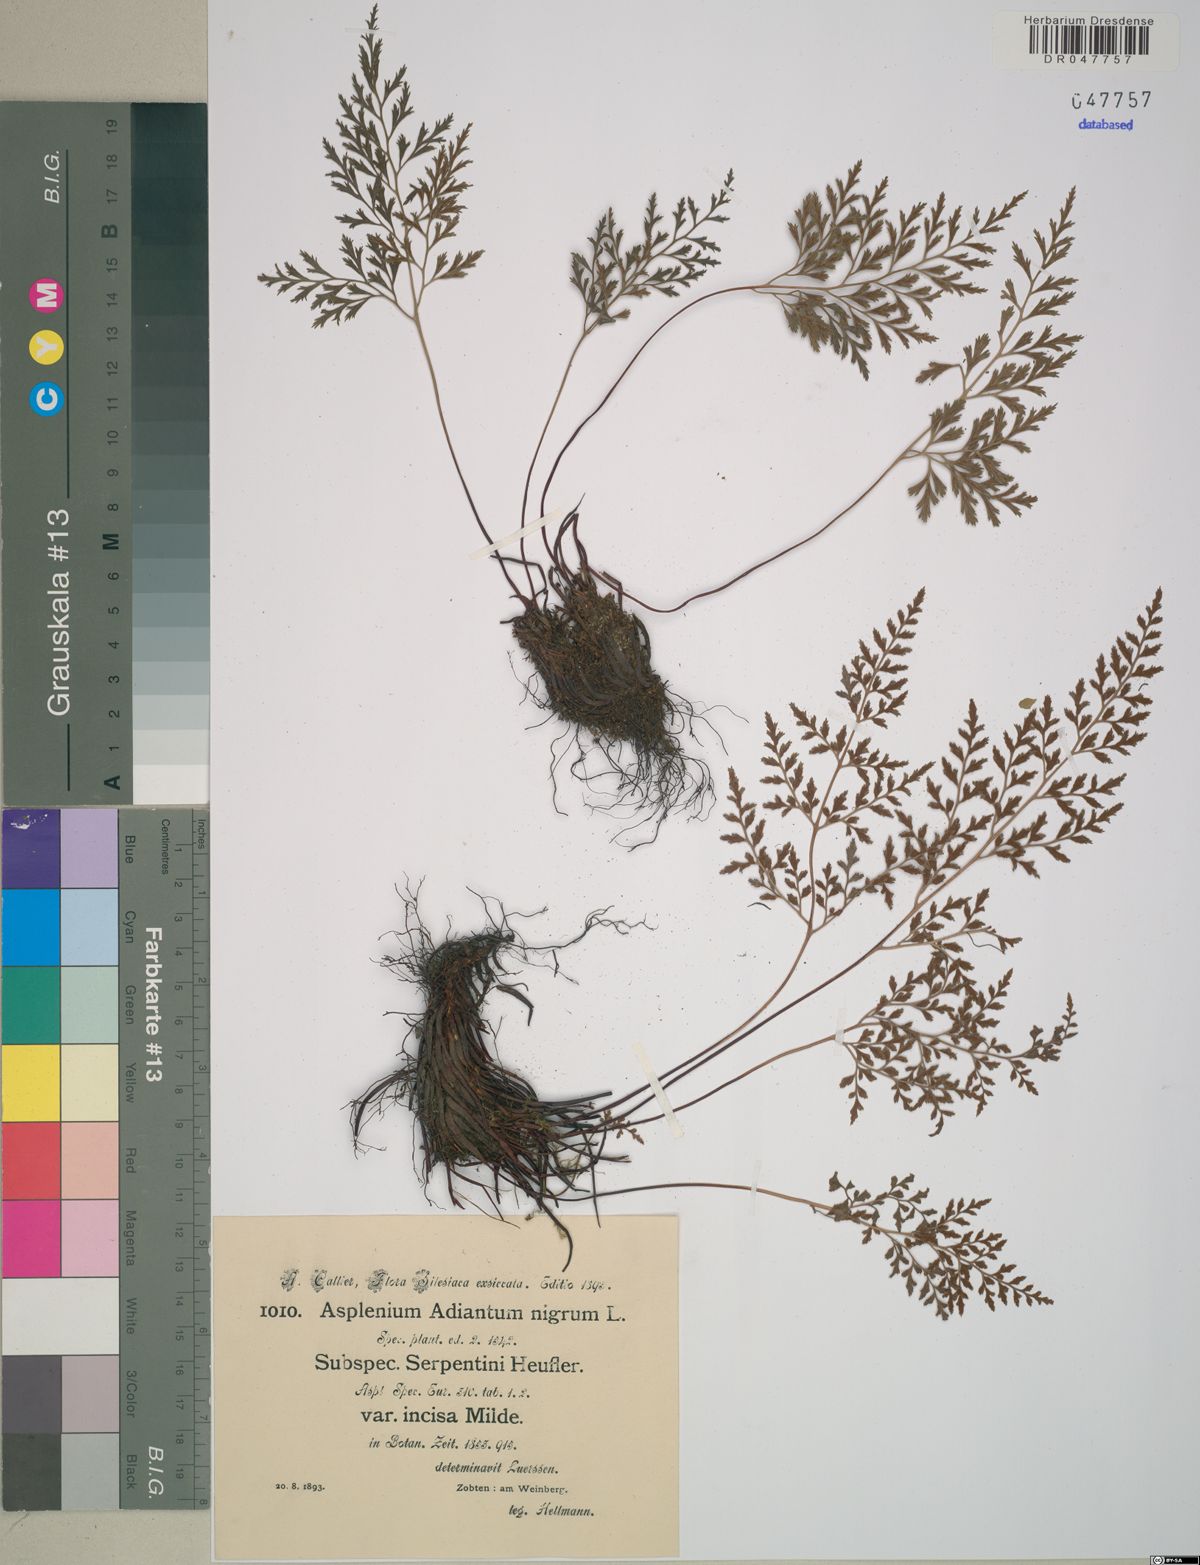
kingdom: Plantae
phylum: Tracheophyta
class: Polypodiopsida
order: Polypodiales
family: Aspleniaceae
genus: Asplenium
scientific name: Asplenium cuneifolium
